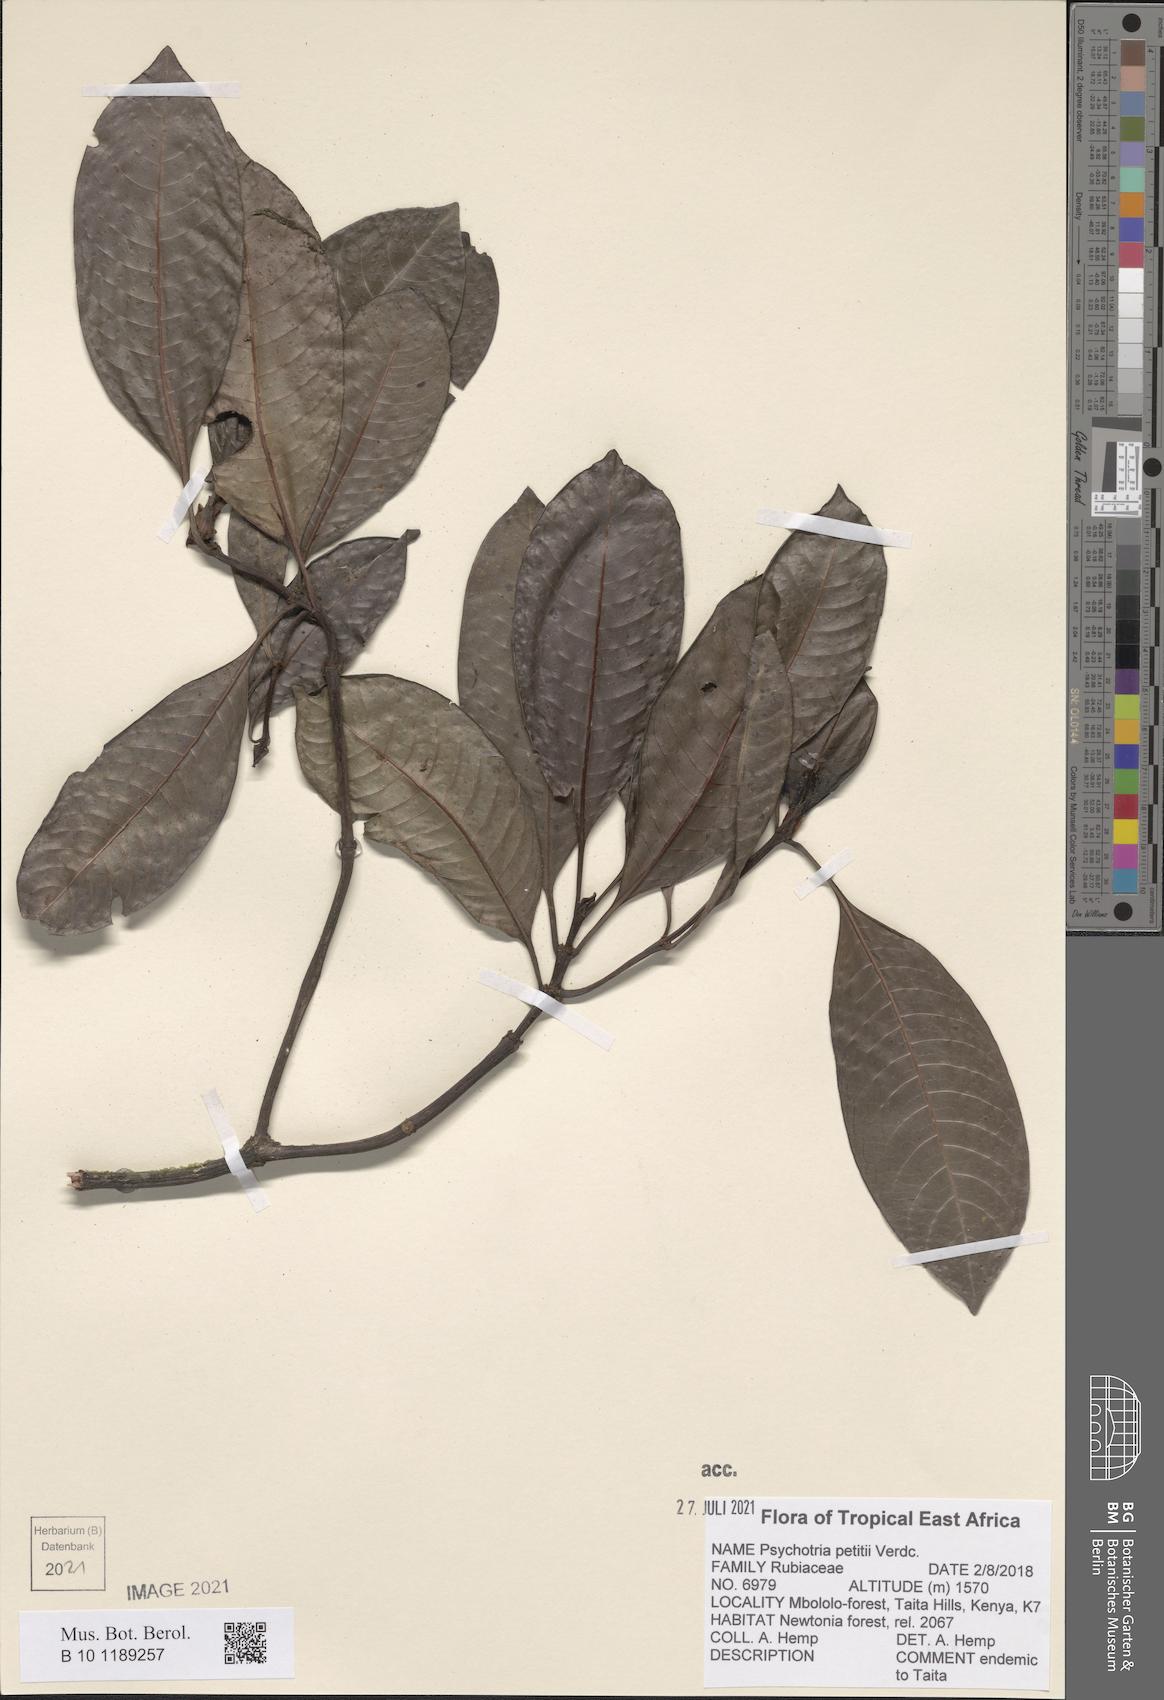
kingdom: Plantae
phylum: Tracheophyta
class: Magnoliopsida
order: Gentianales
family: Rubiaceae
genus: Psychotria
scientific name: Psychotria petitii
